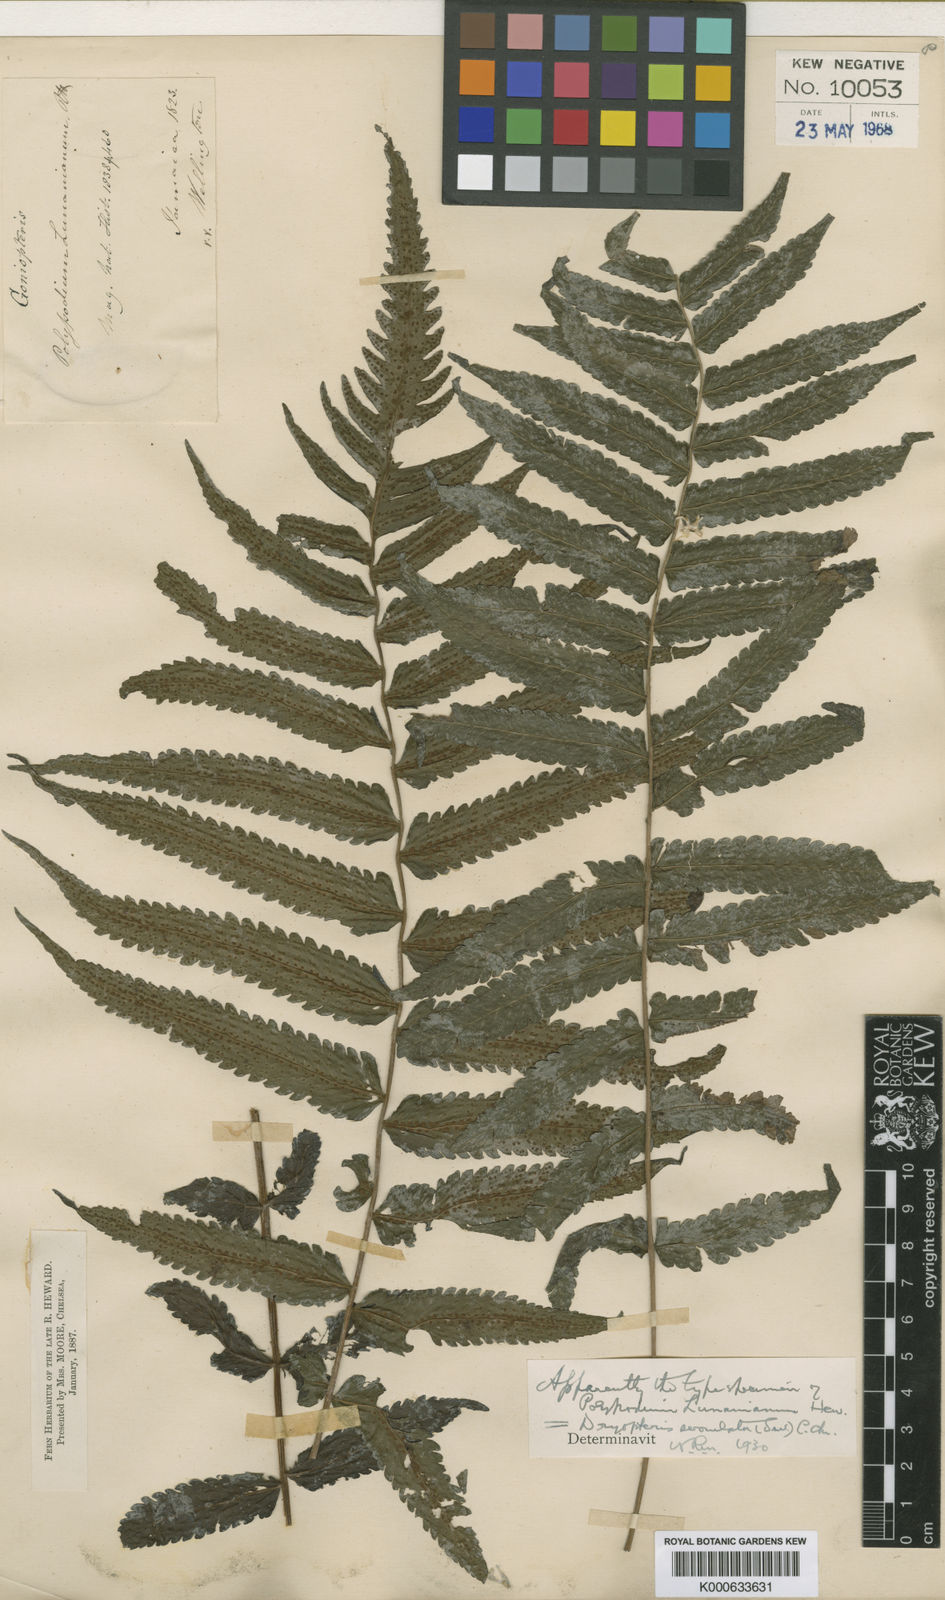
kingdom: Plantae
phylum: Tracheophyta
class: Polypodiopsida
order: Polypodiales
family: Thelypteridaceae
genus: Goniopteris
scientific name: Goniopteris serrulata
